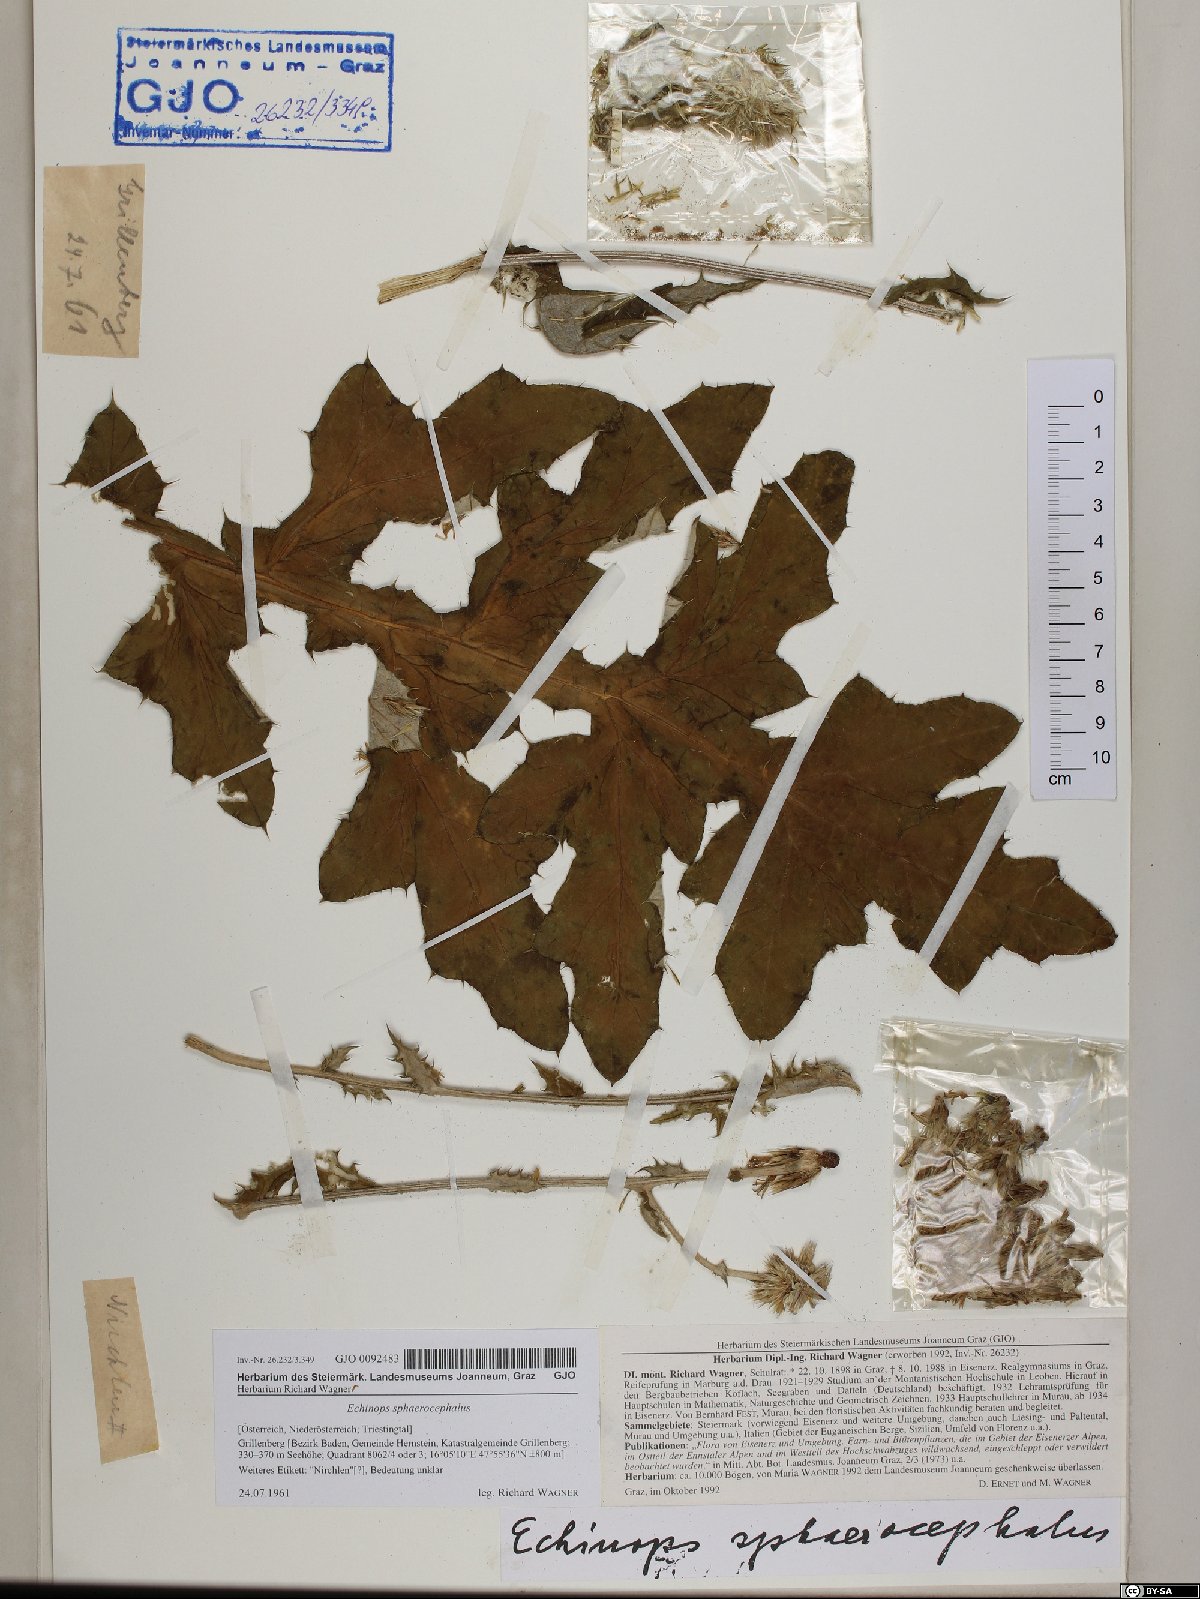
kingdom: Plantae
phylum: Tracheophyta
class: Magnoliopsida
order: Asterales
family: Asteraceae
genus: Echinops
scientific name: Echinops sphaerocephalus
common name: Glandular globe-thistle
